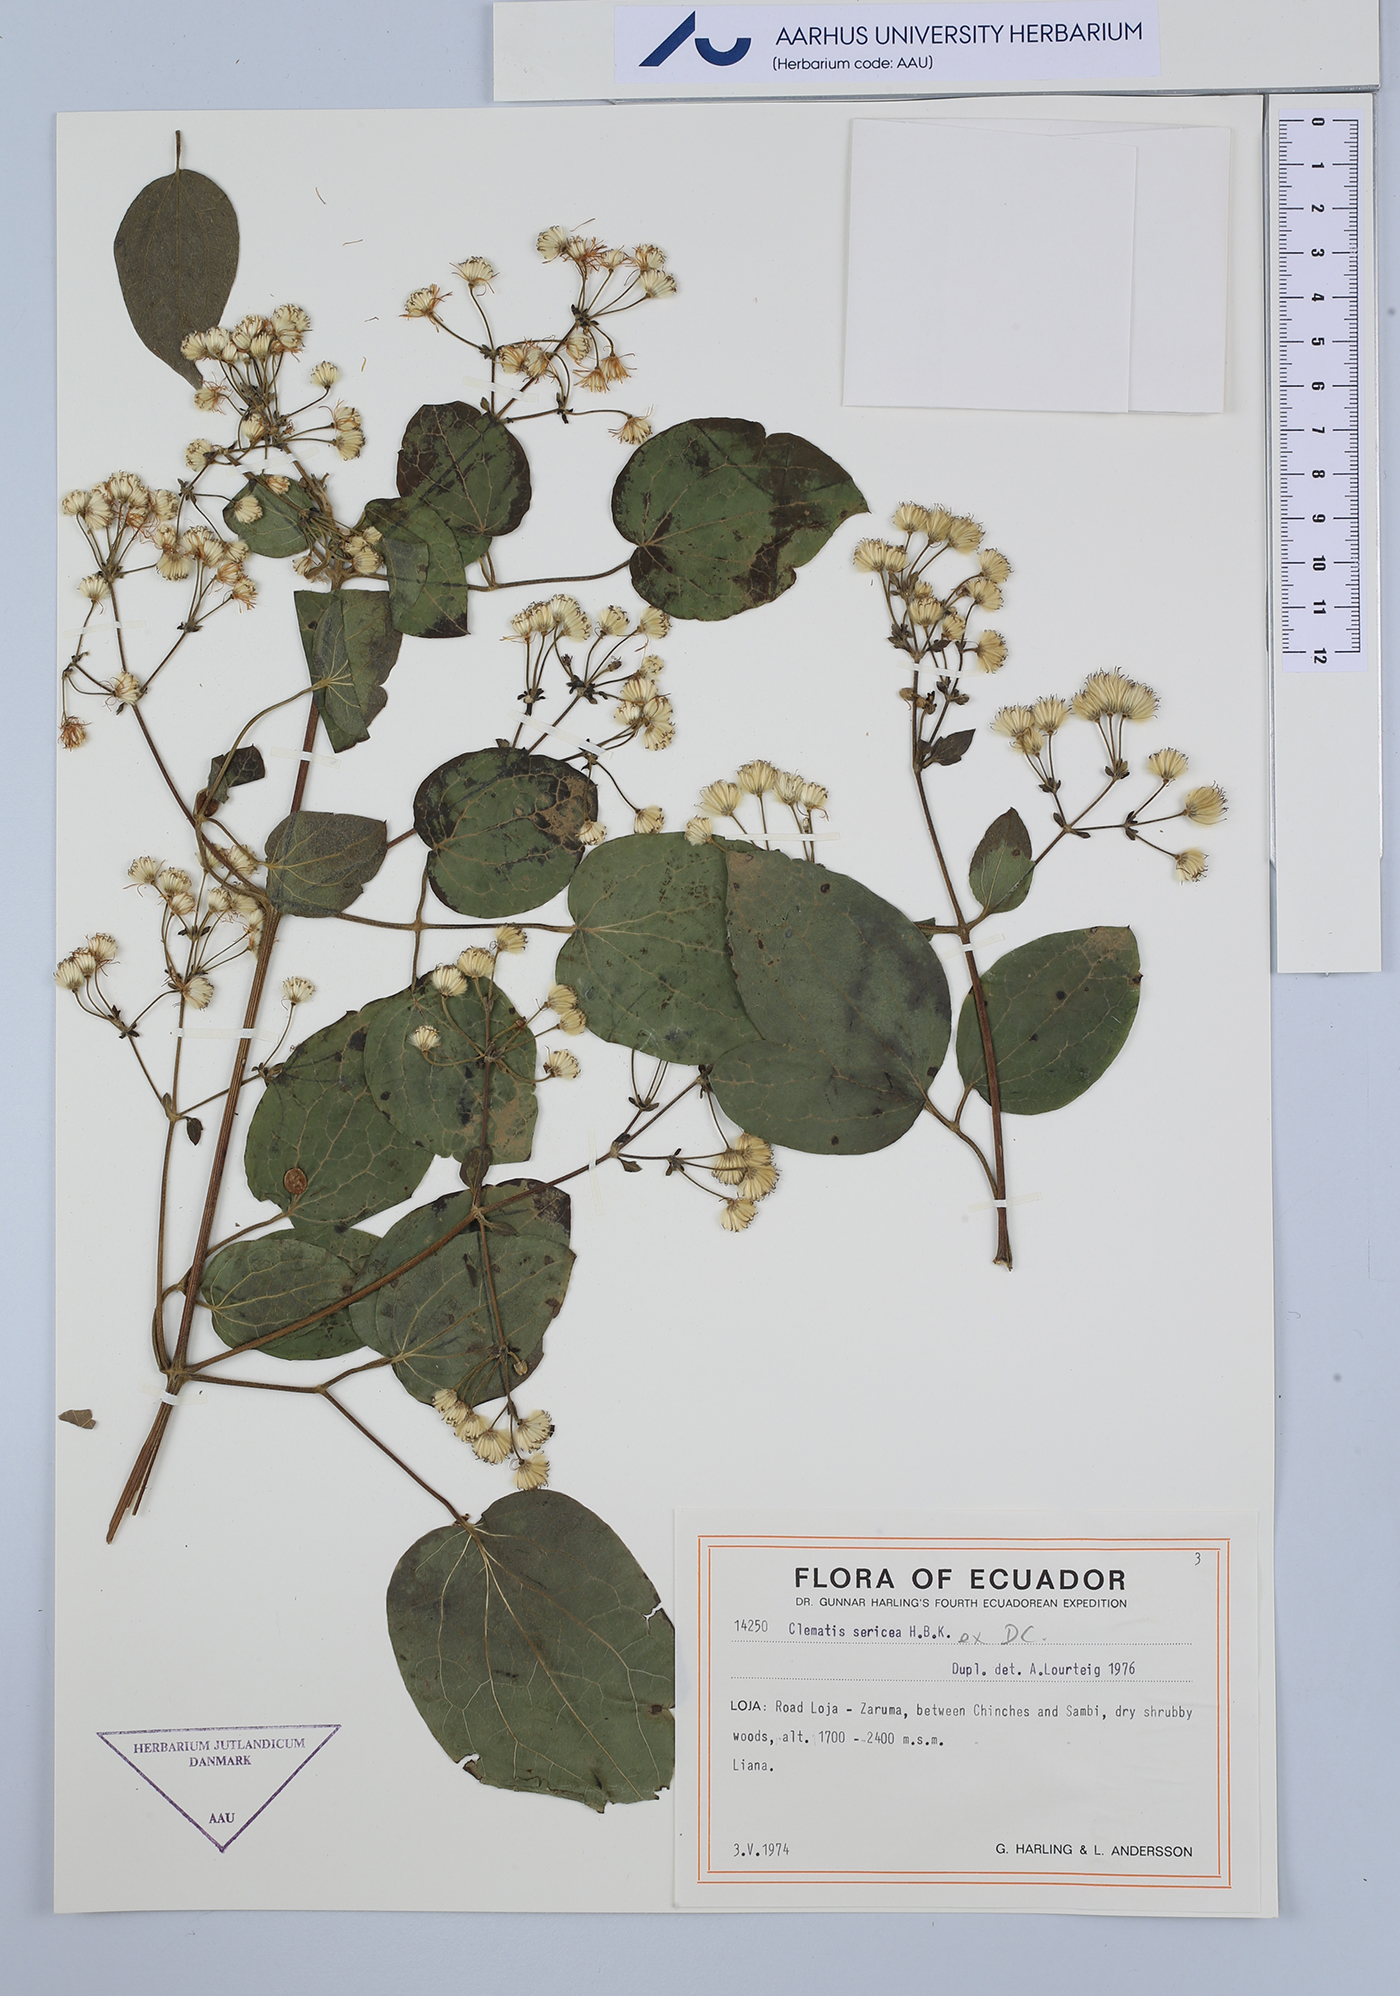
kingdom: Plantae
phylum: Tracheophyta
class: Magnoliopsida
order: Ranunculales
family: Ranunculaceae
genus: Clematis
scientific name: Clematis haenkeana
